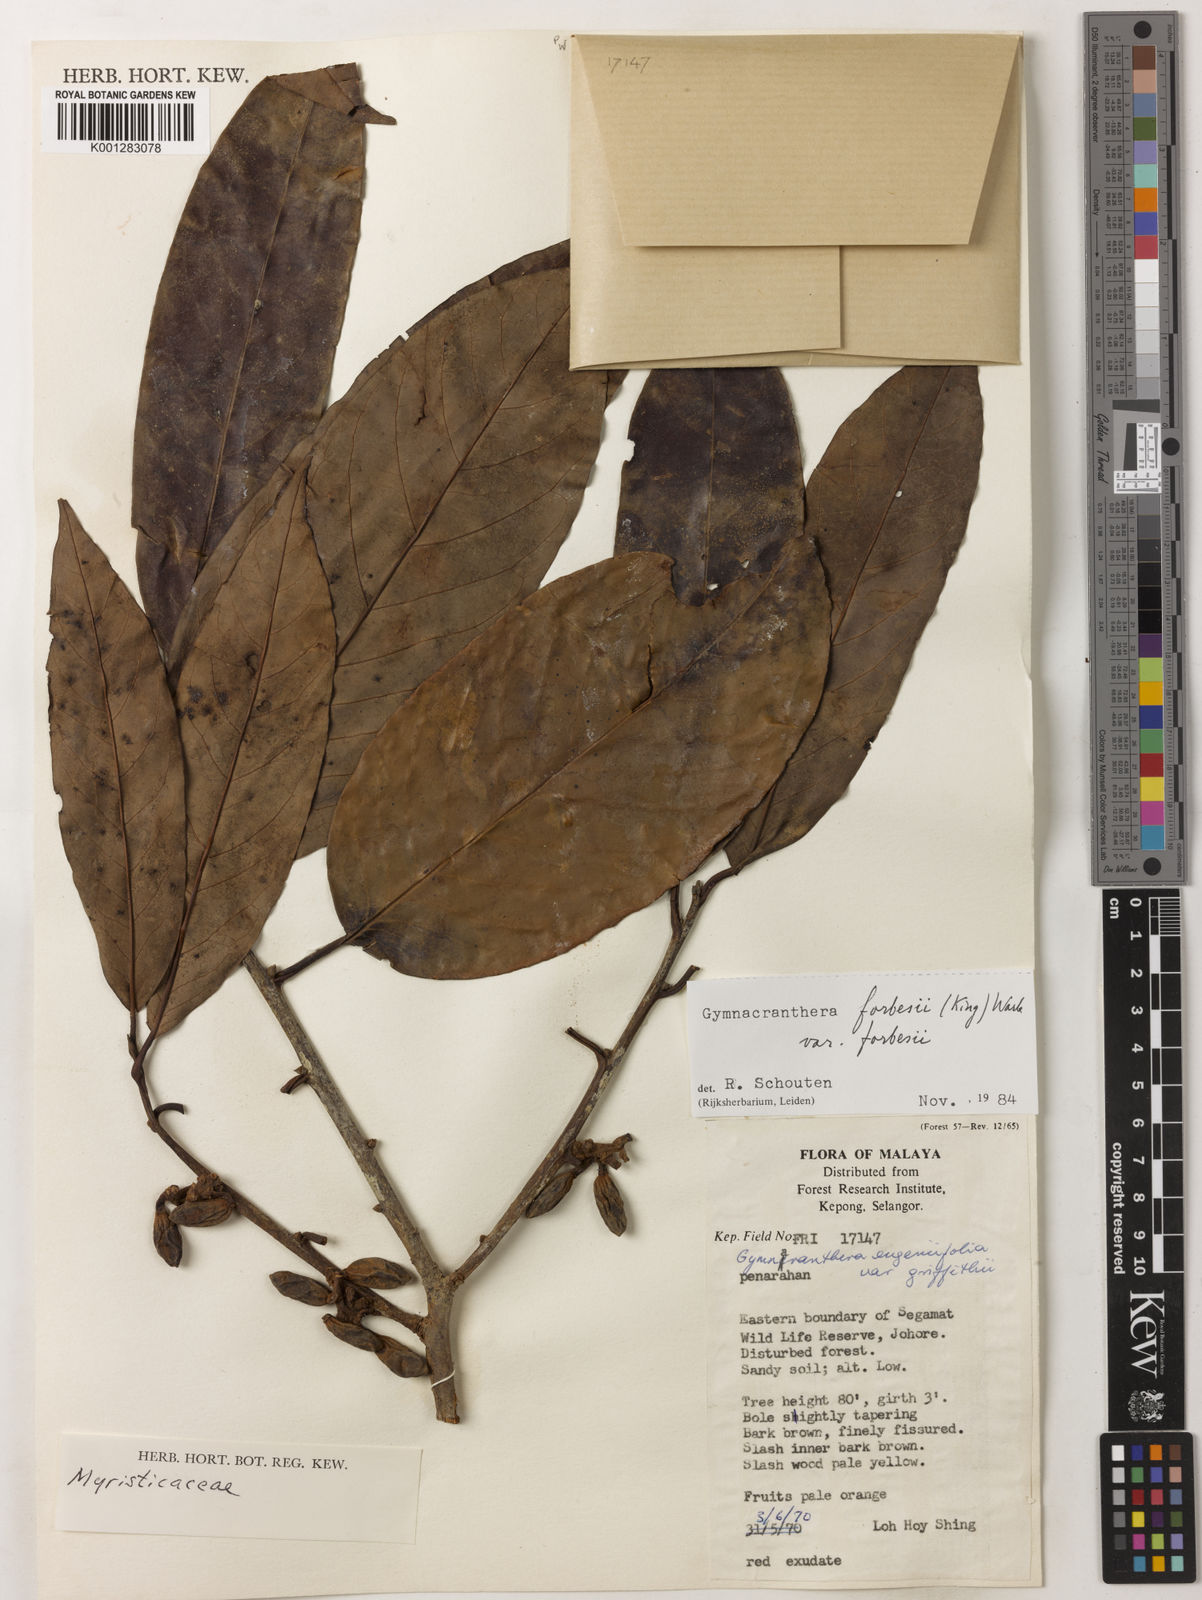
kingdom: Plantae
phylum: Tracheophyta
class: Magnoliopsida
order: Magnoliales
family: Myristicaceae
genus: Gymnacranthera
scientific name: Gymnacranthera forbesii
